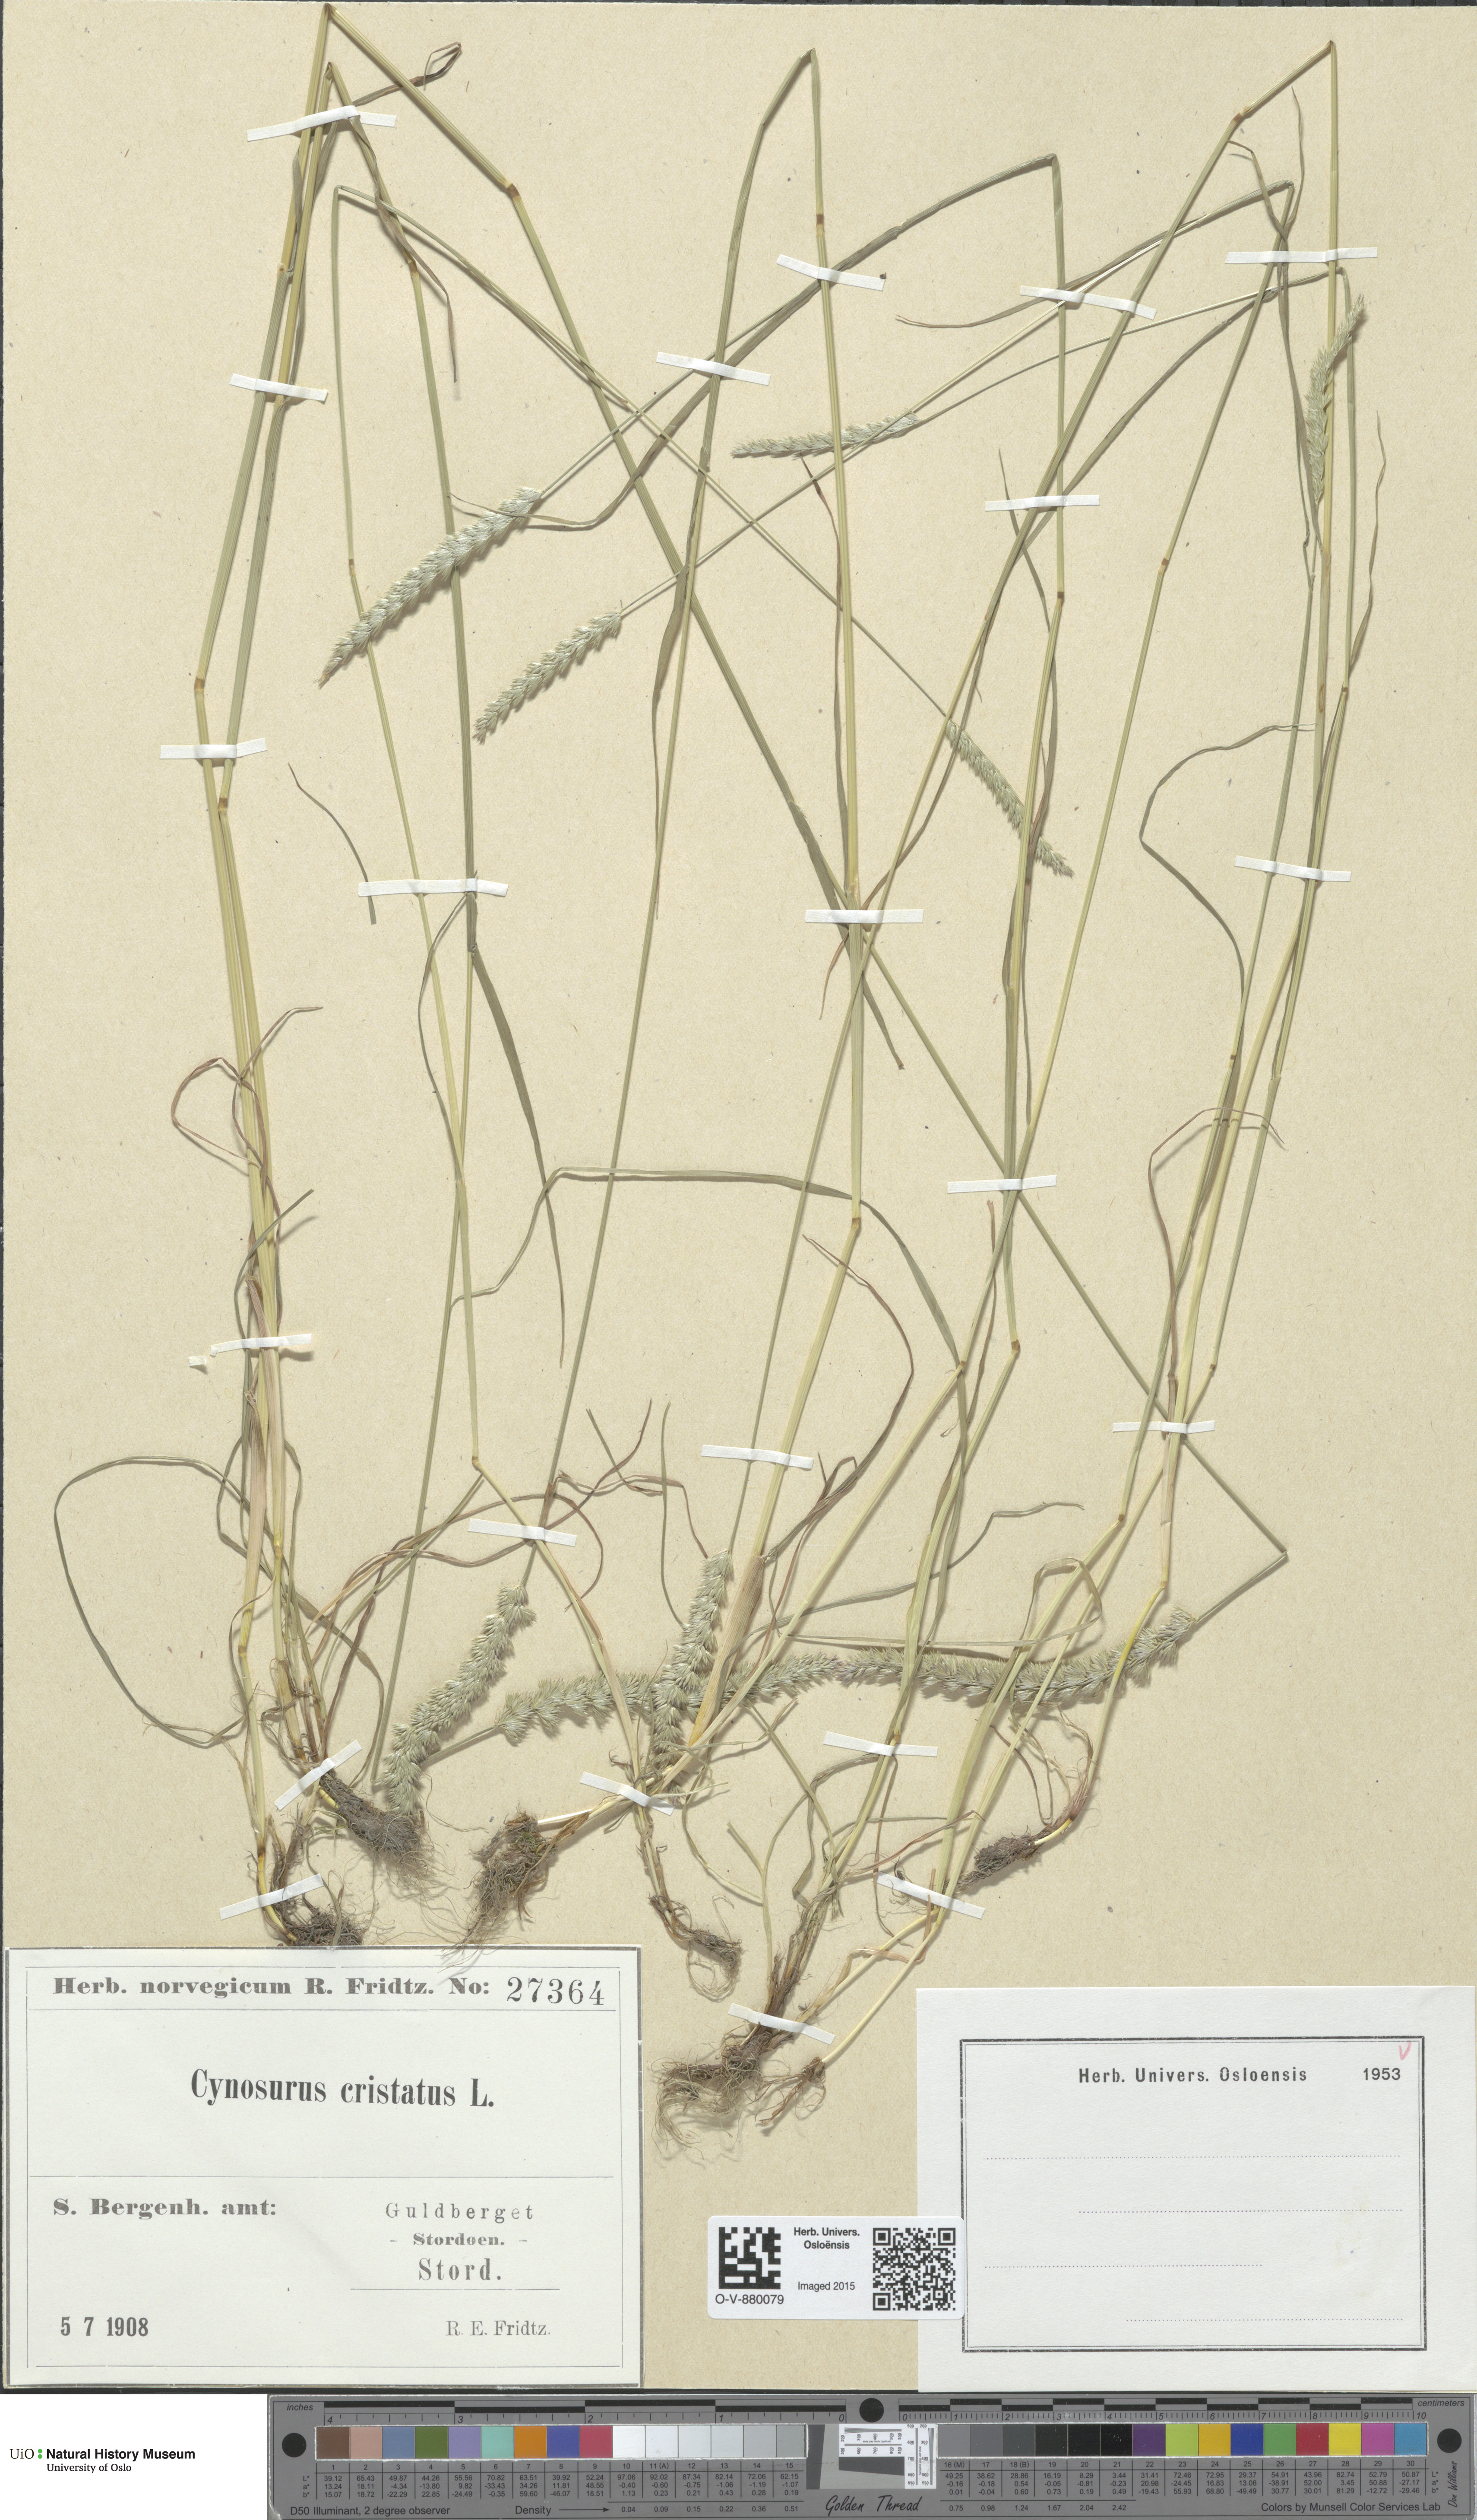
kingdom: Plantae
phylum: Tracheophyta
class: Liliopsida
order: Poales
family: Poaceae
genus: Cynosurus
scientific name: Cynosurus cristatus
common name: Crested dog's-tail
